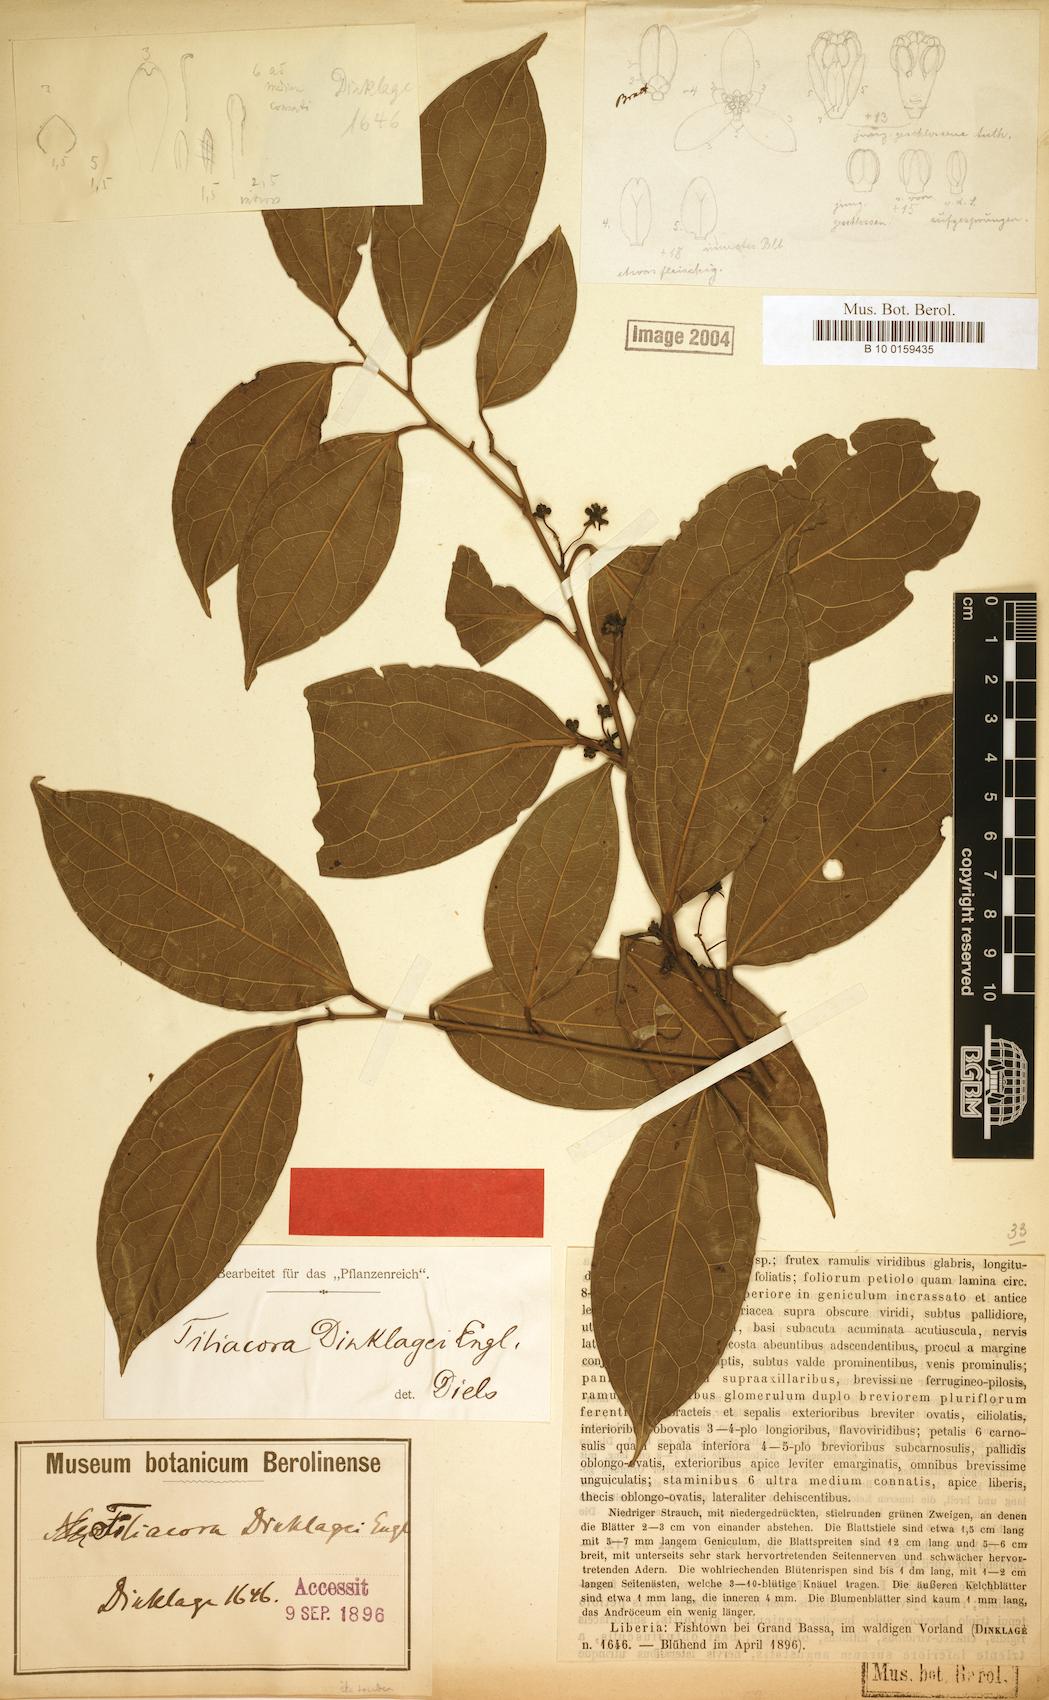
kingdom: Plantae
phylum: Tracheophyta
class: Magnoliopsida
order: Ranunculales
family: Menispermaceae
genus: Tiliacora
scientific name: Tiliacora leonensis
